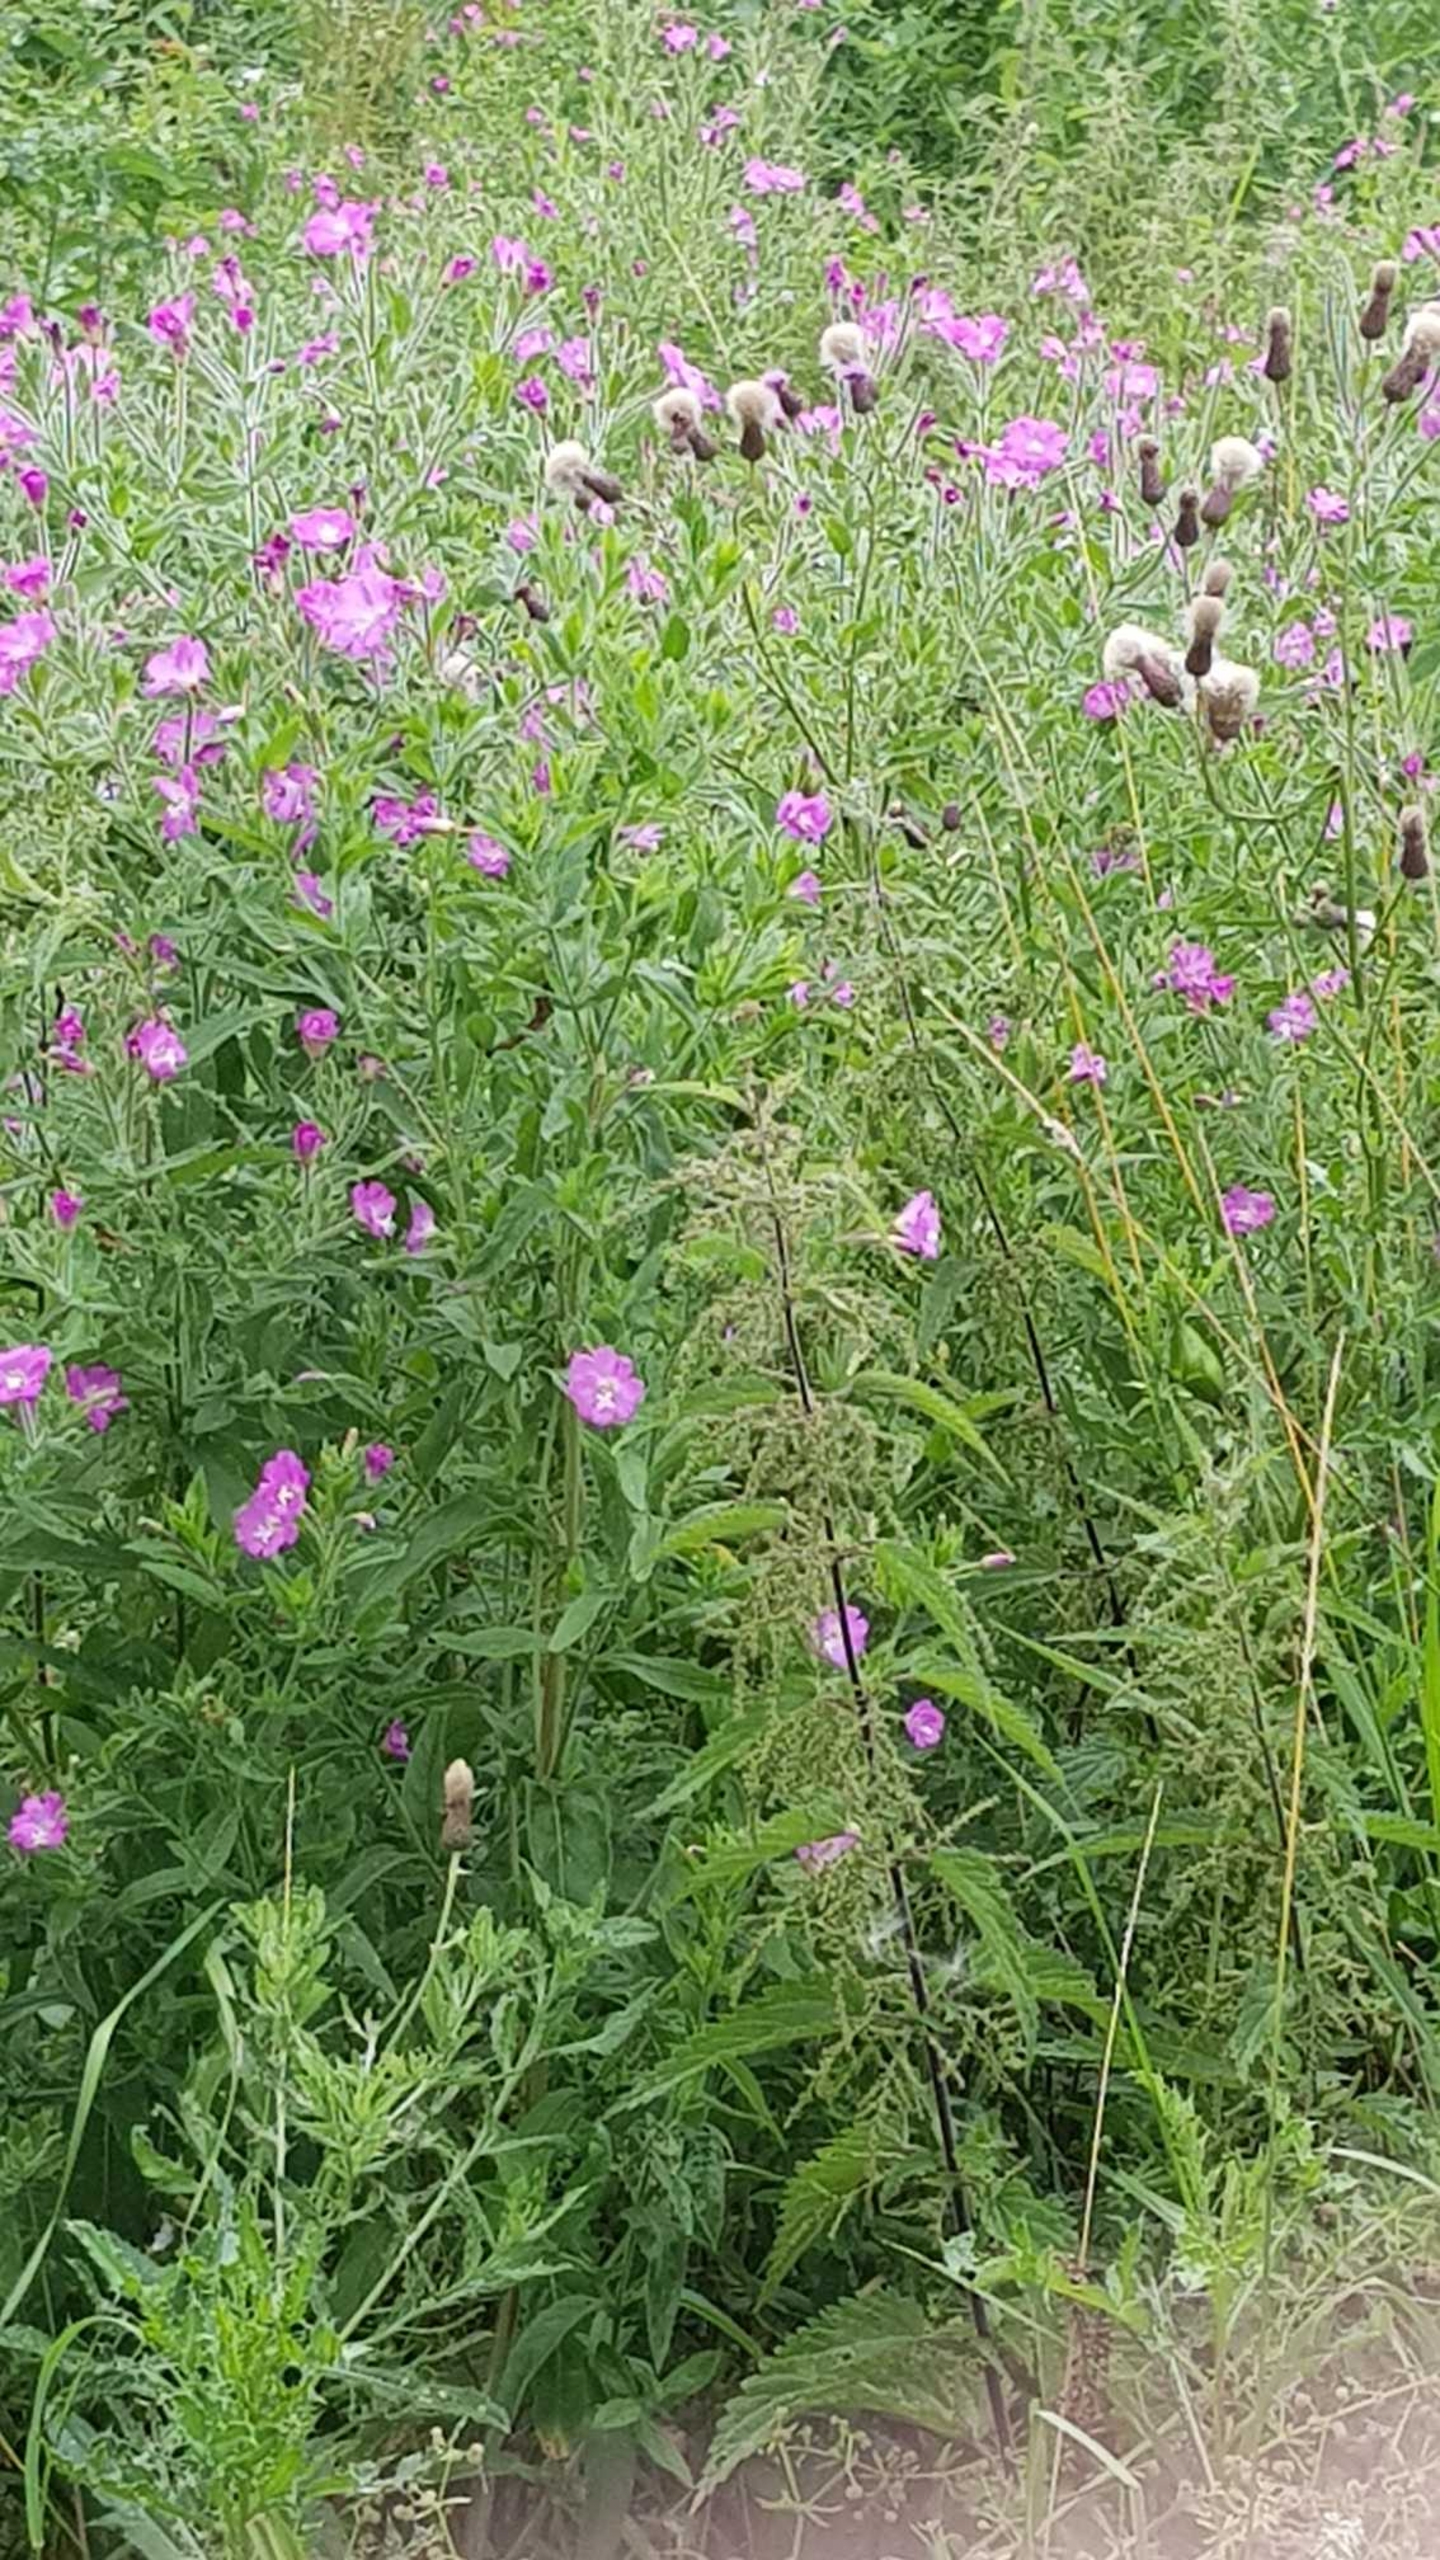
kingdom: Plantae
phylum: Tracheophyta
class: Magnoliopsida
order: Myrtales
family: Onagraceae
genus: Epilobium
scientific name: Epilobium hirsutum
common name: Lådden dueurt
